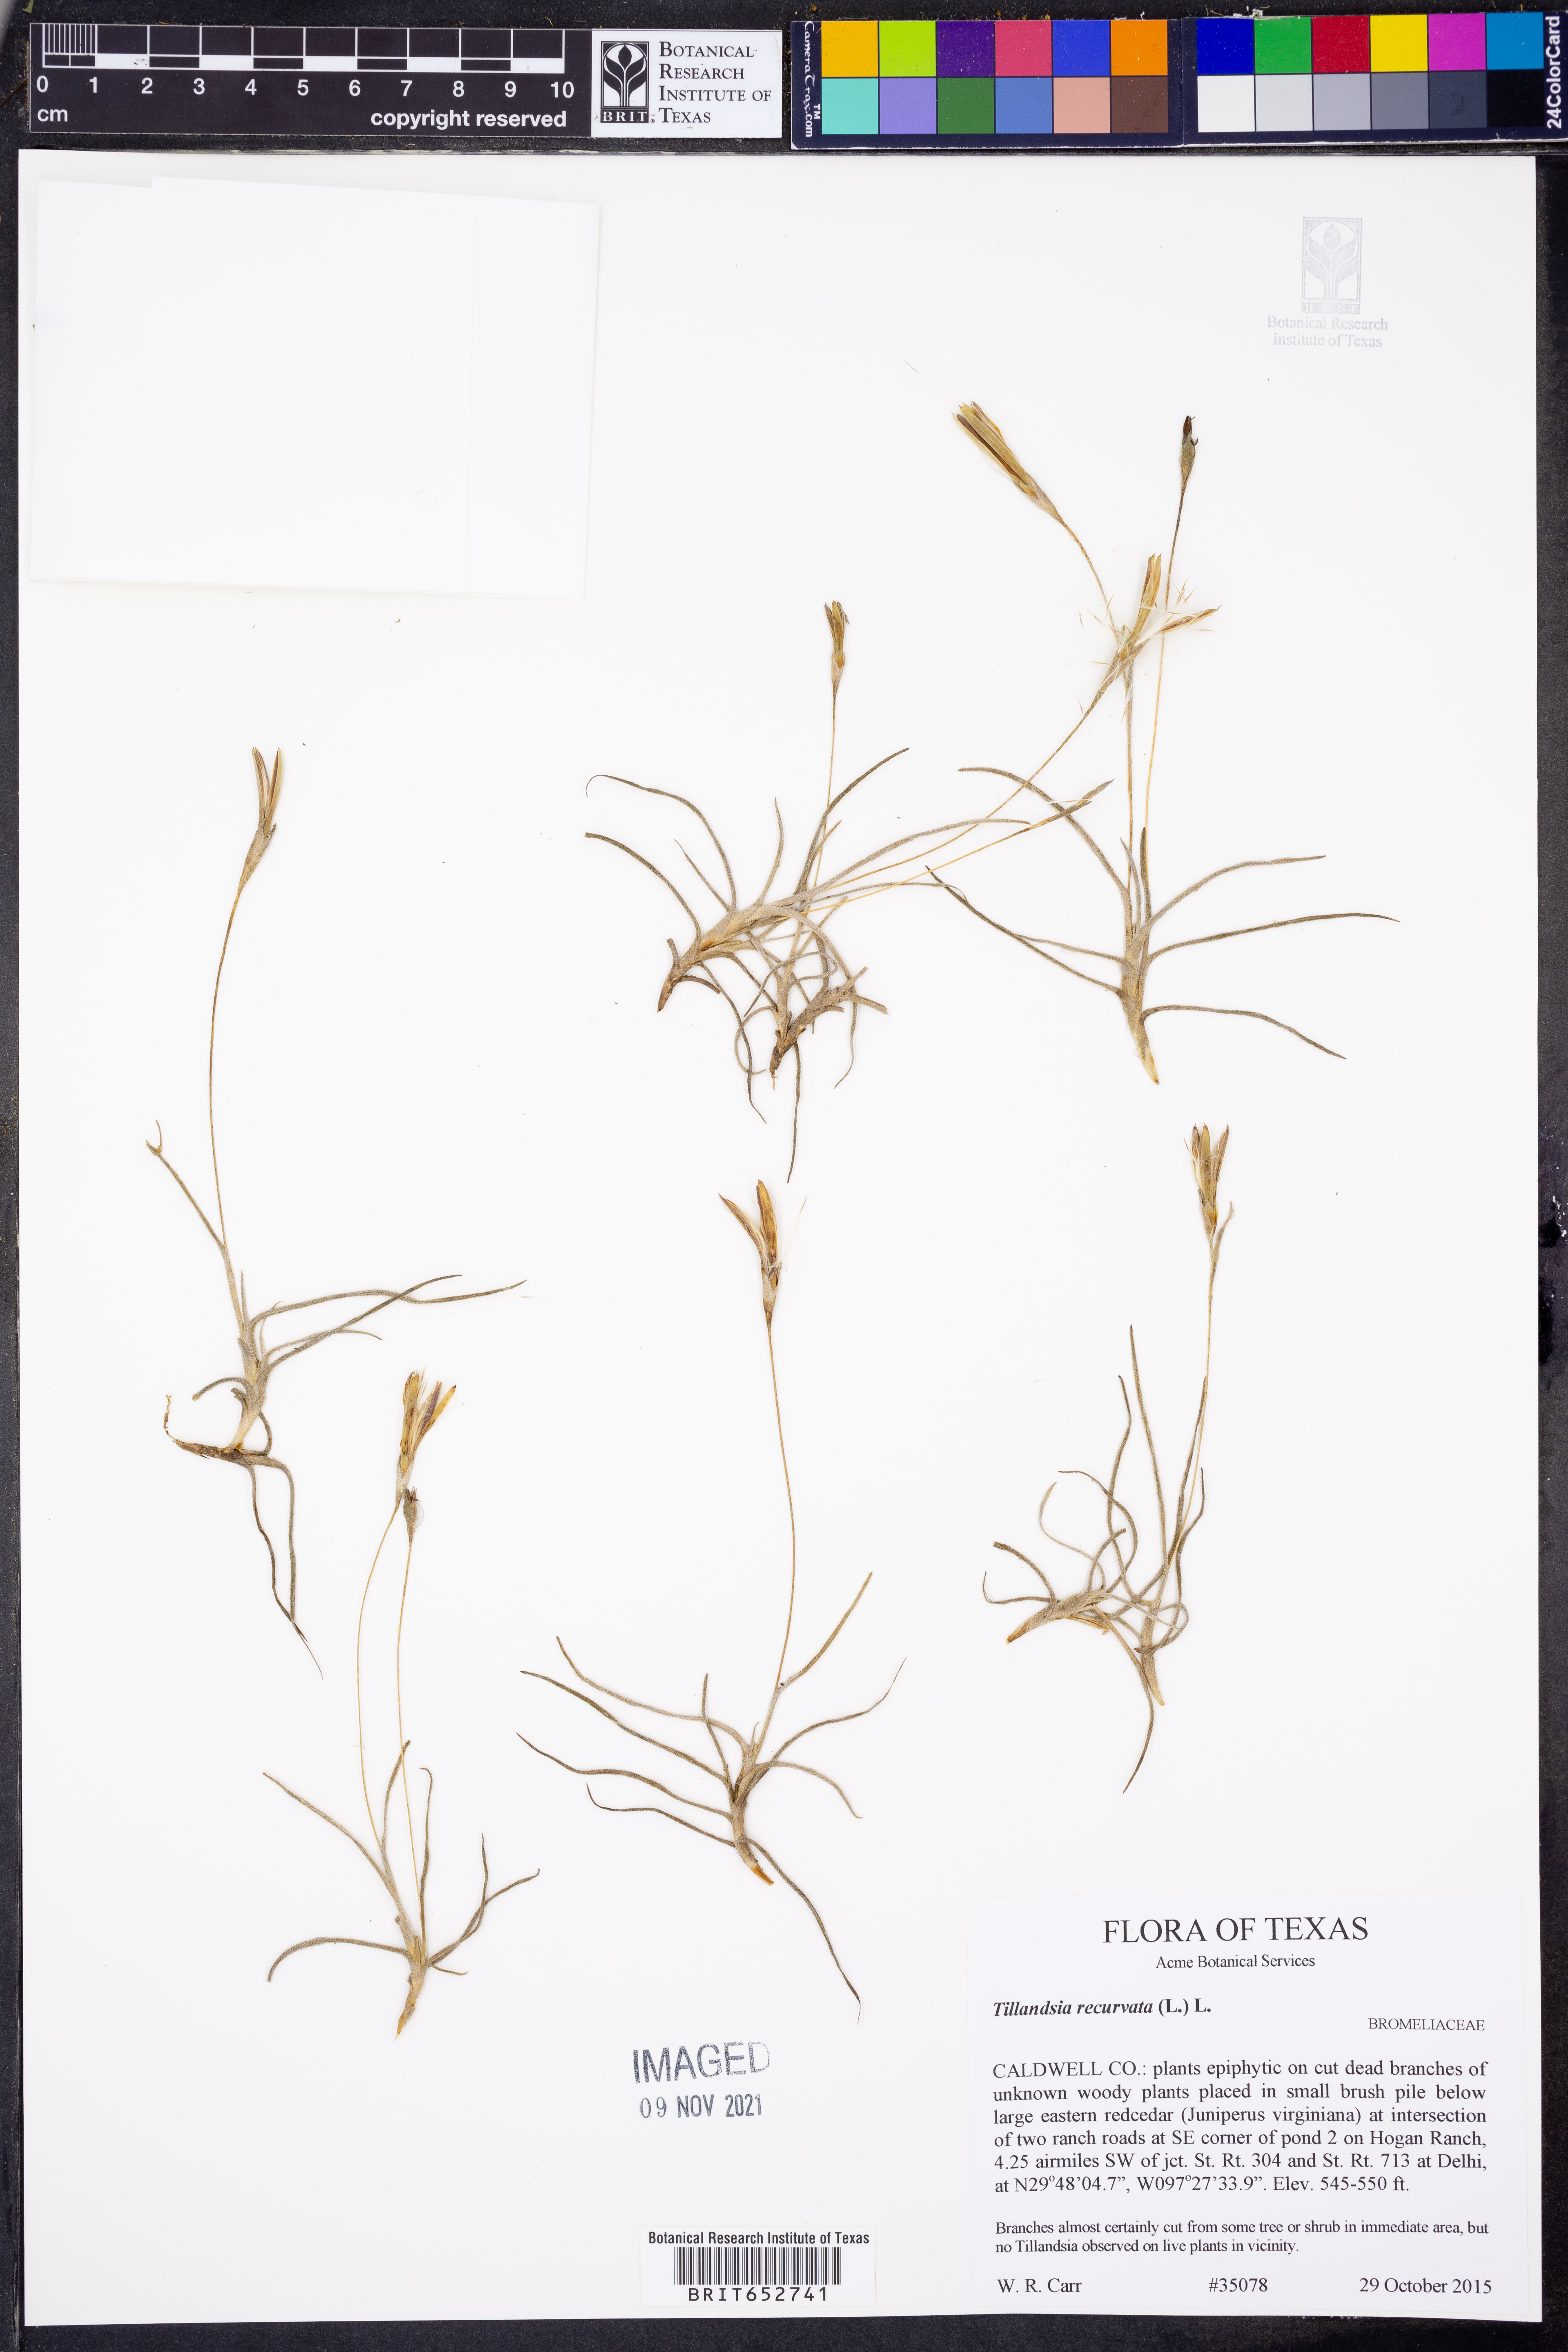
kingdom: Plantae
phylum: Tracheophyta
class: Liliopsida
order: Poales
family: Bromeliaceae
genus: Tillandsia
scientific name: Tillandsia recurvata
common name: Small ballmoss
